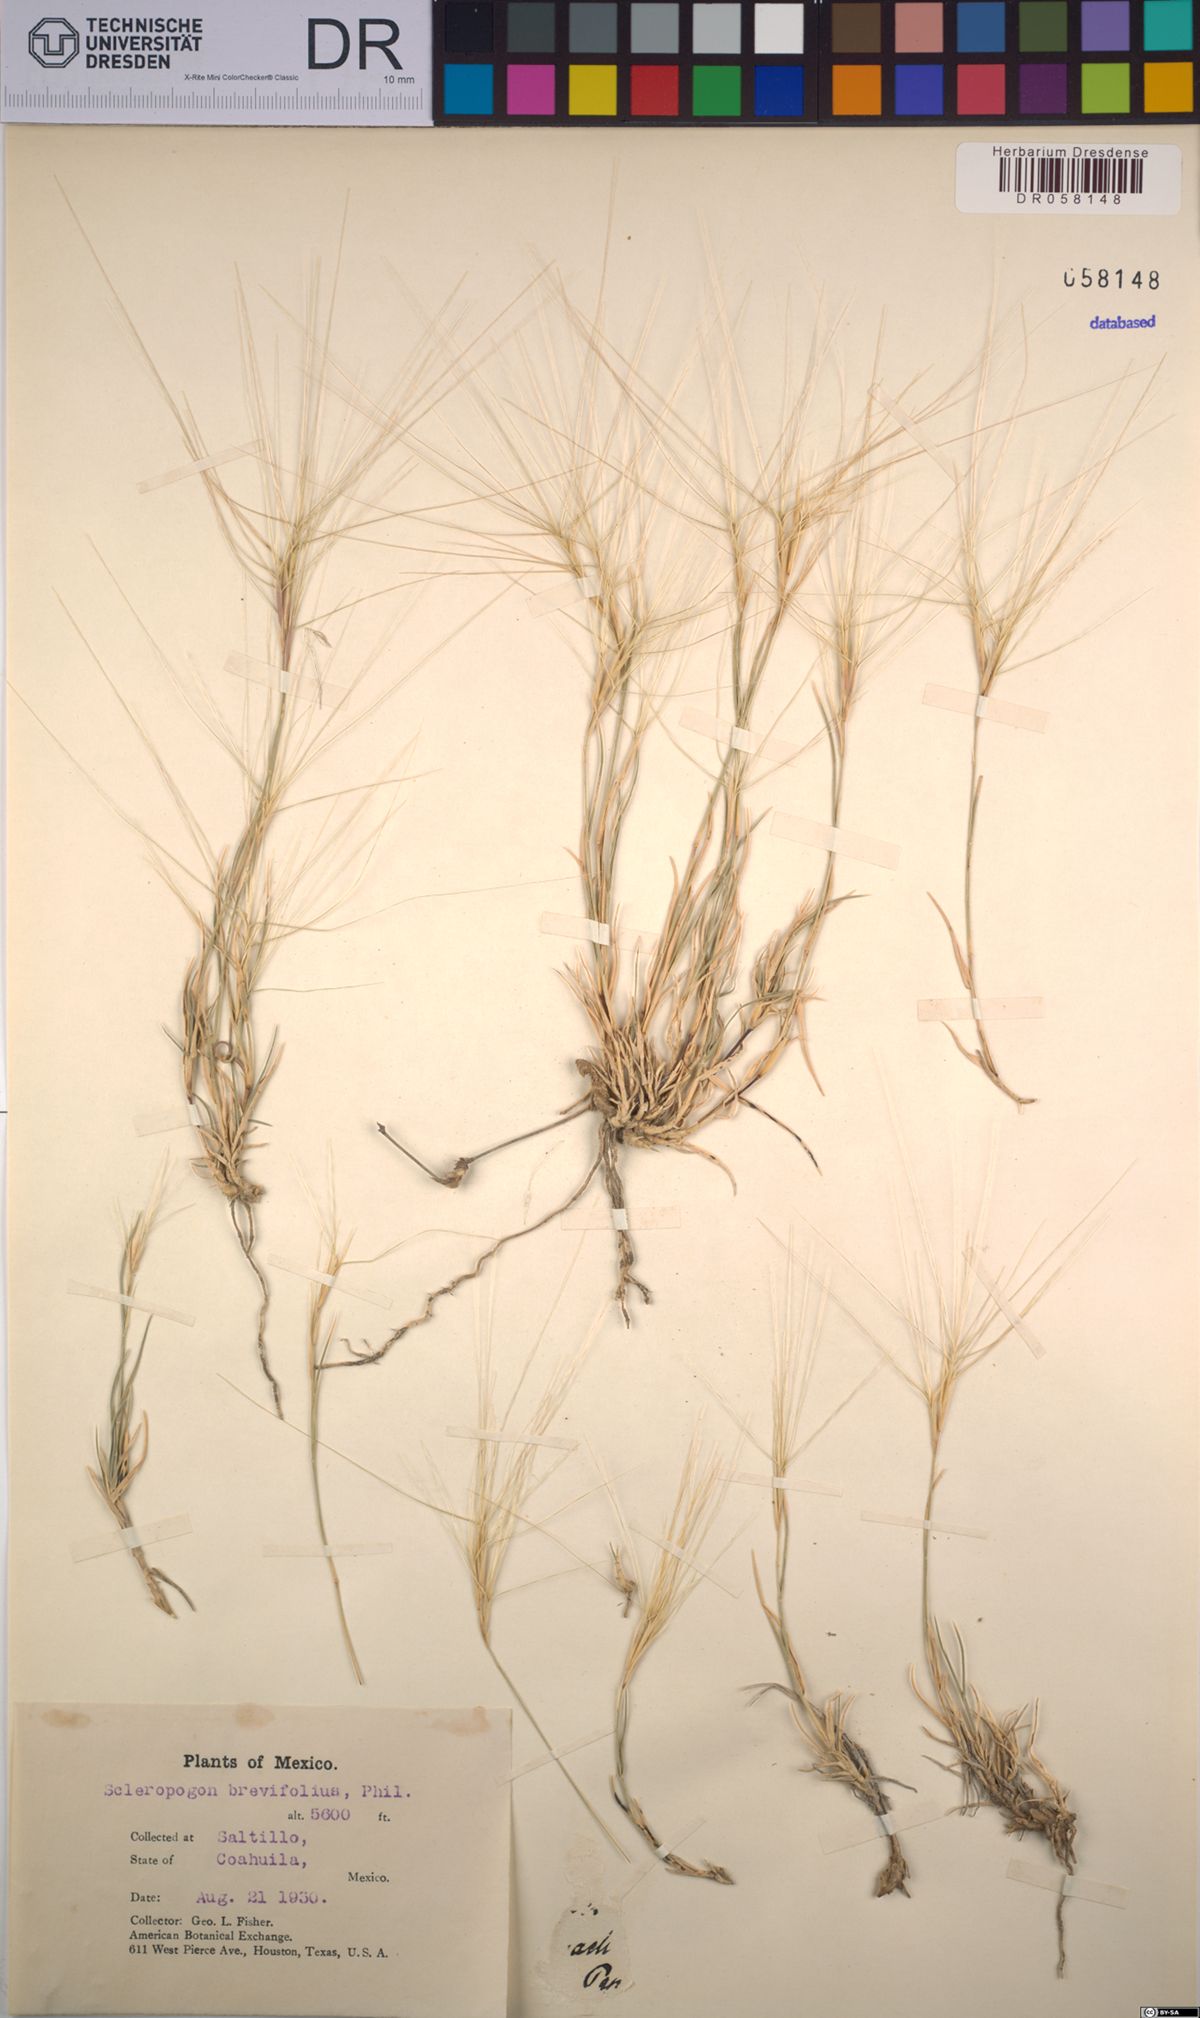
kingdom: Plantae
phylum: Tracheophyta
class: Liliopsida
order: Poales
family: Poaceae
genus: Scleropogon
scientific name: Scleropogon brevifolius
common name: Burro grass
